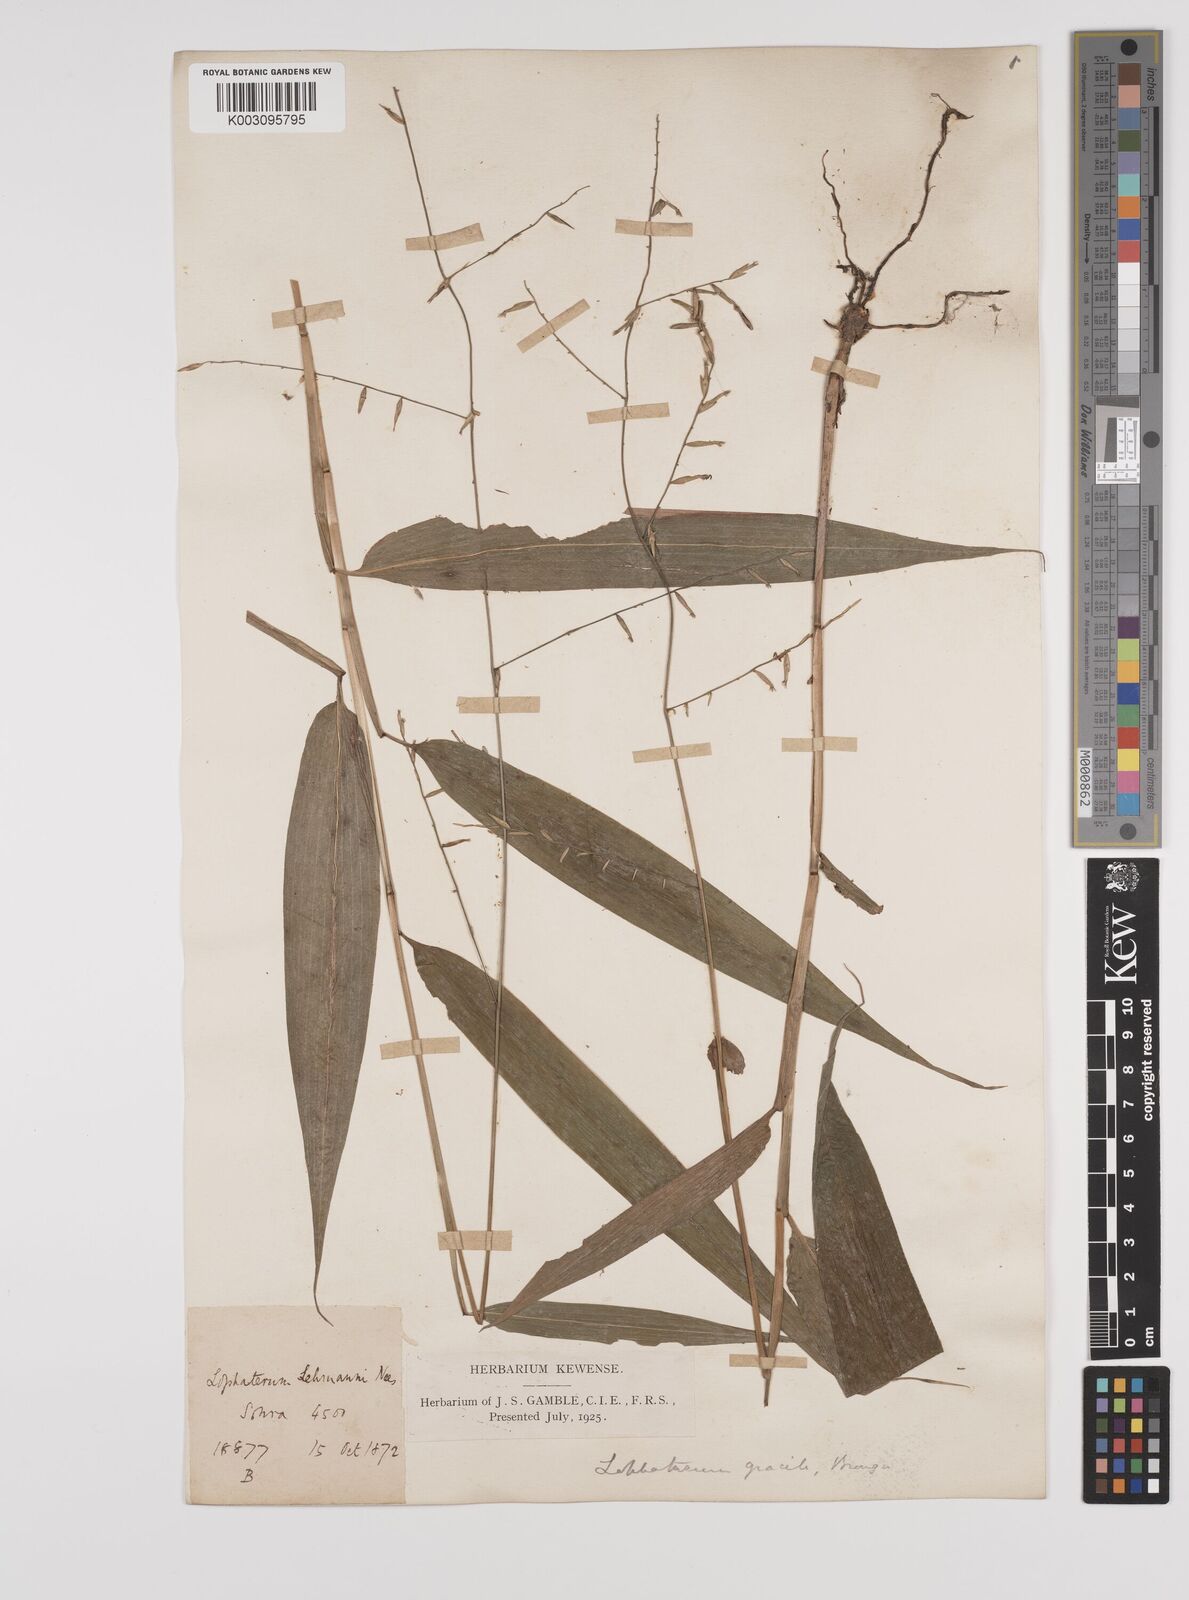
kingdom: Plantae
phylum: Tracheophyta
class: Liliopsida
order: Poales
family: Poaceae
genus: Lophatherum
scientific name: Lophatherum gracile
